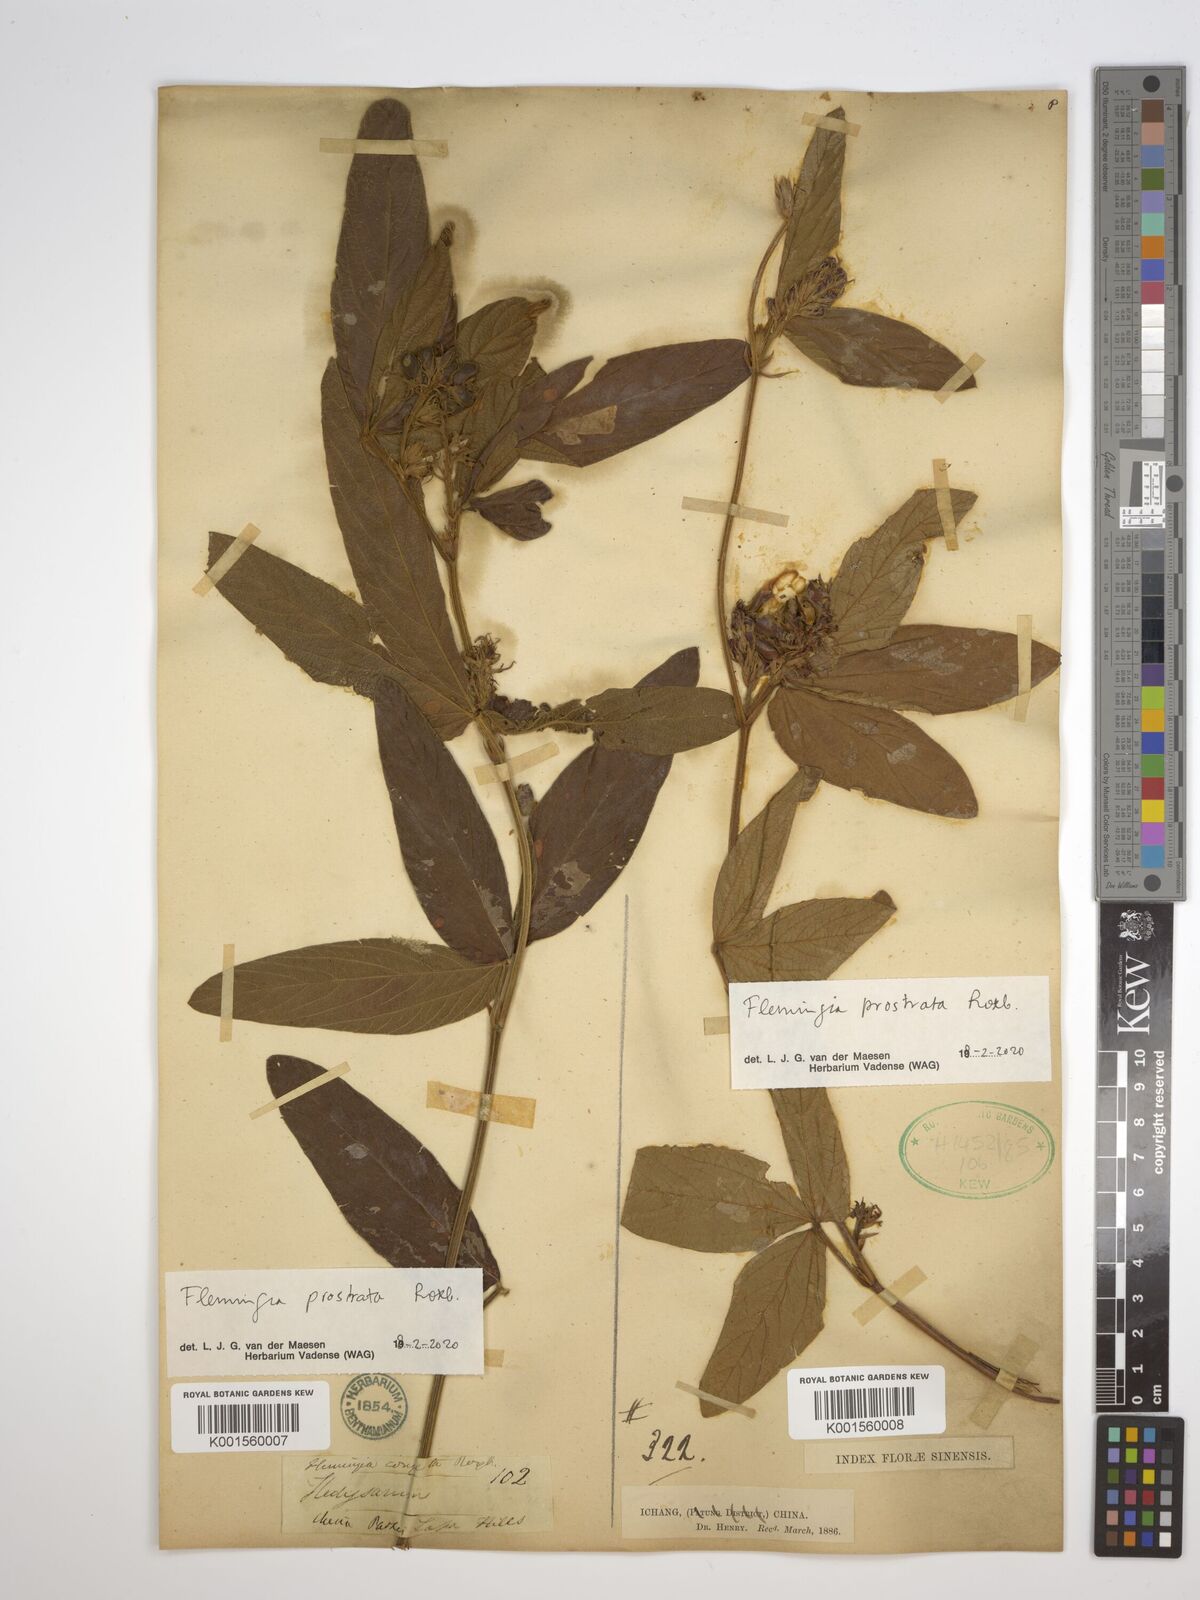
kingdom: Plantae
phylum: Tracheophyta
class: Magnoliopsida
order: Fabales
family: Fabaceae
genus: Flemingia
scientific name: Flemingia prostrata
